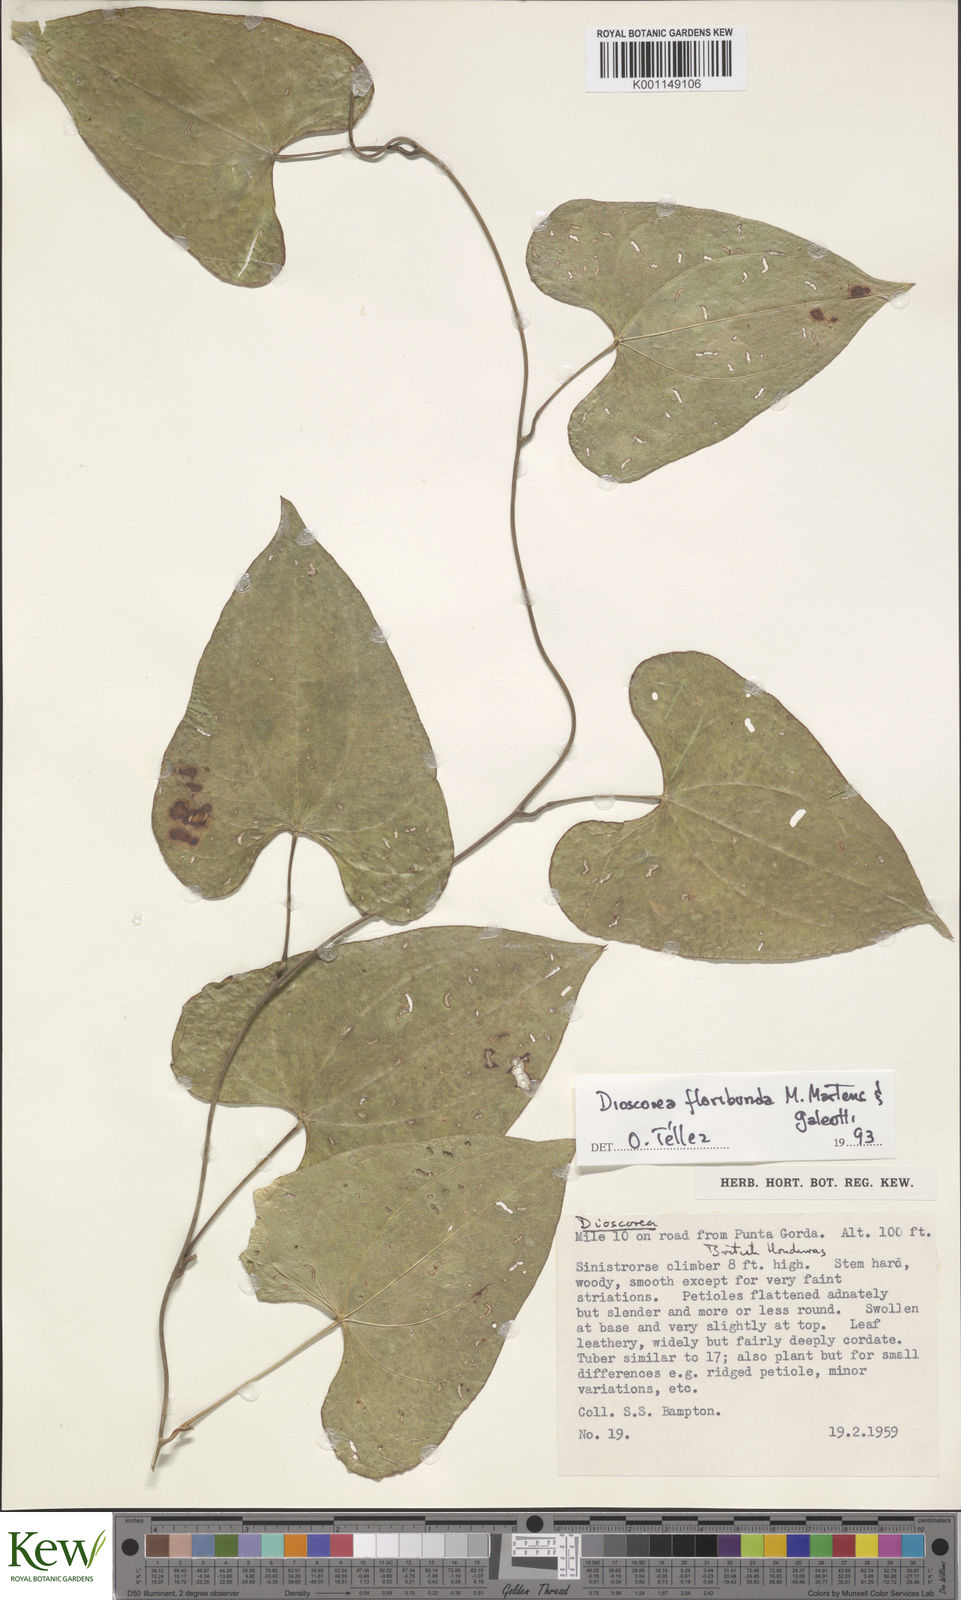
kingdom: Plantae
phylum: Tracheophyta
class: Liliopsida
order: Dioscoreales
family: Dioscoreaceae
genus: Dioscorea
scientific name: Dioscorea
